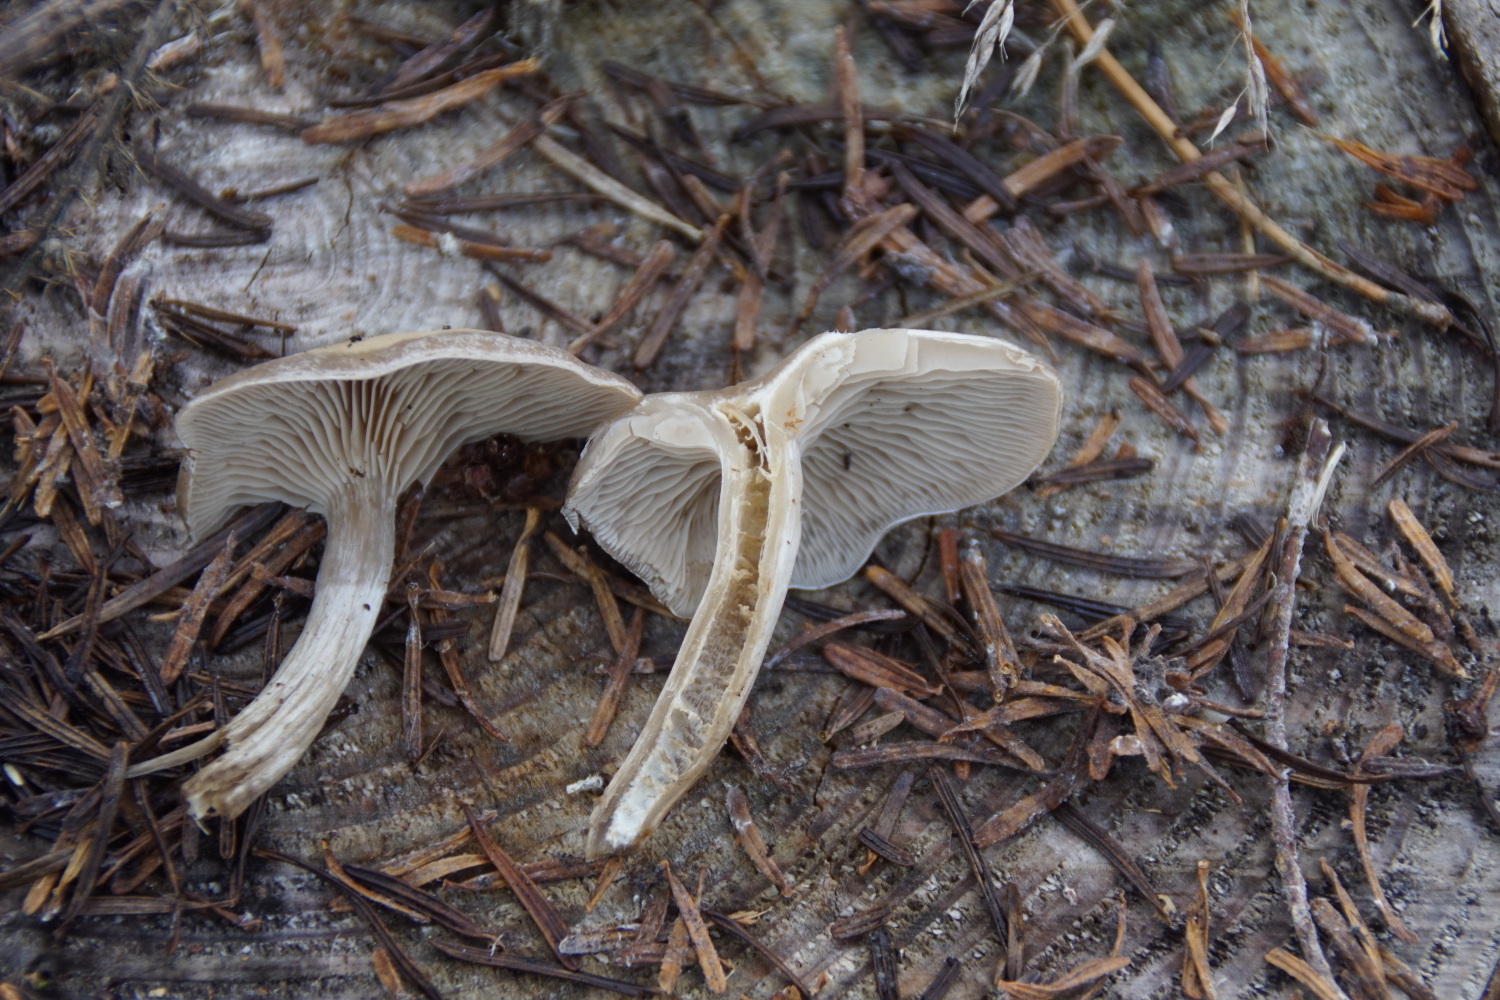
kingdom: Fungi
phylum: Basidiomycota
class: Agaricomycetes
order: Agaricales
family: Tricholomataceae
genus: Clitocybe
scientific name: Clitocybe metachroa
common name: grå tragthat
